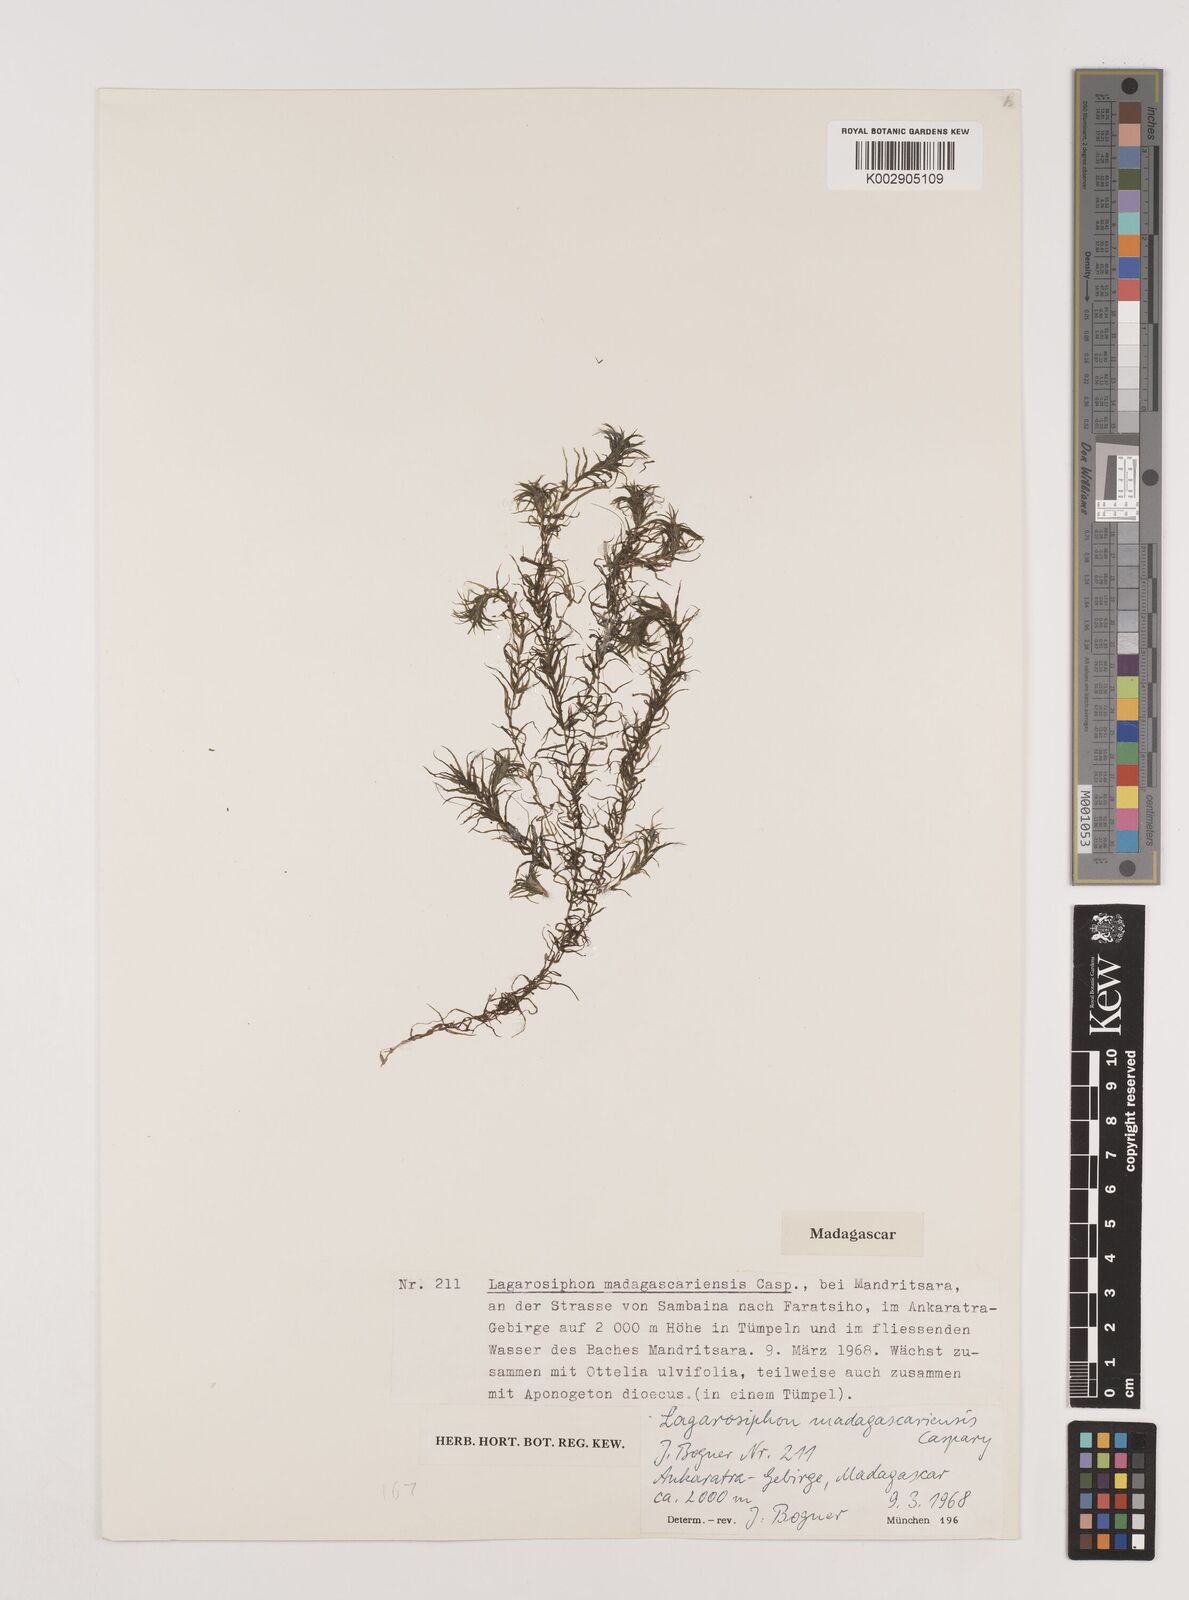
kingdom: Plantae
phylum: Tracheophyta
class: Liliopsida
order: Alismatales
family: Hydrocharitaceae
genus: Lagarosiphon
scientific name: Lagarosiphon madagascariensis
